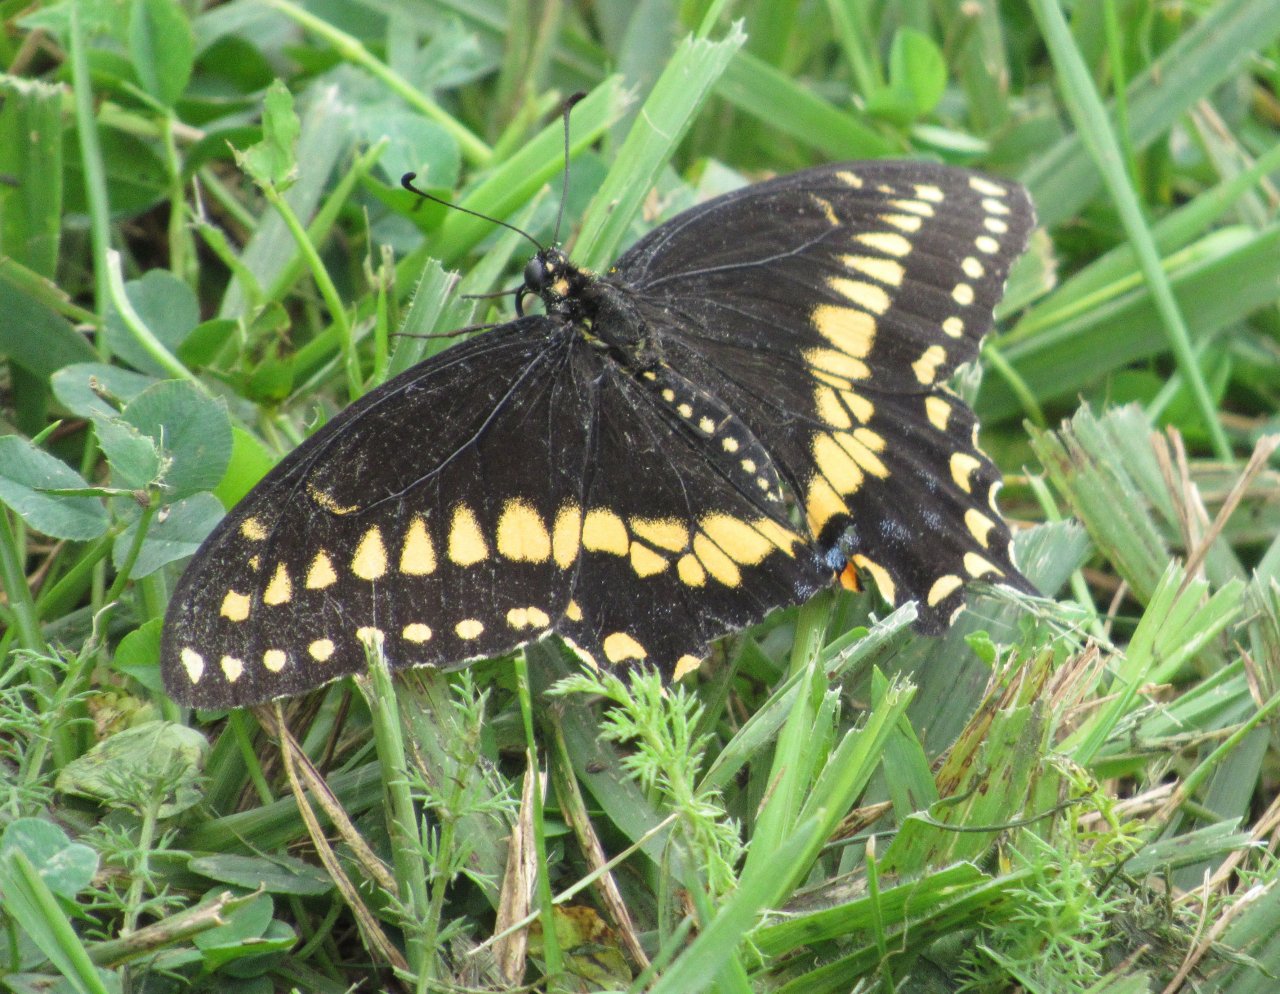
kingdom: Animalia
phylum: Arthropoda
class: Insecta
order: Lepidoptera
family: Papilionidae
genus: Papilio
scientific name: Papilio polyxenes
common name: Black Swallowtail
